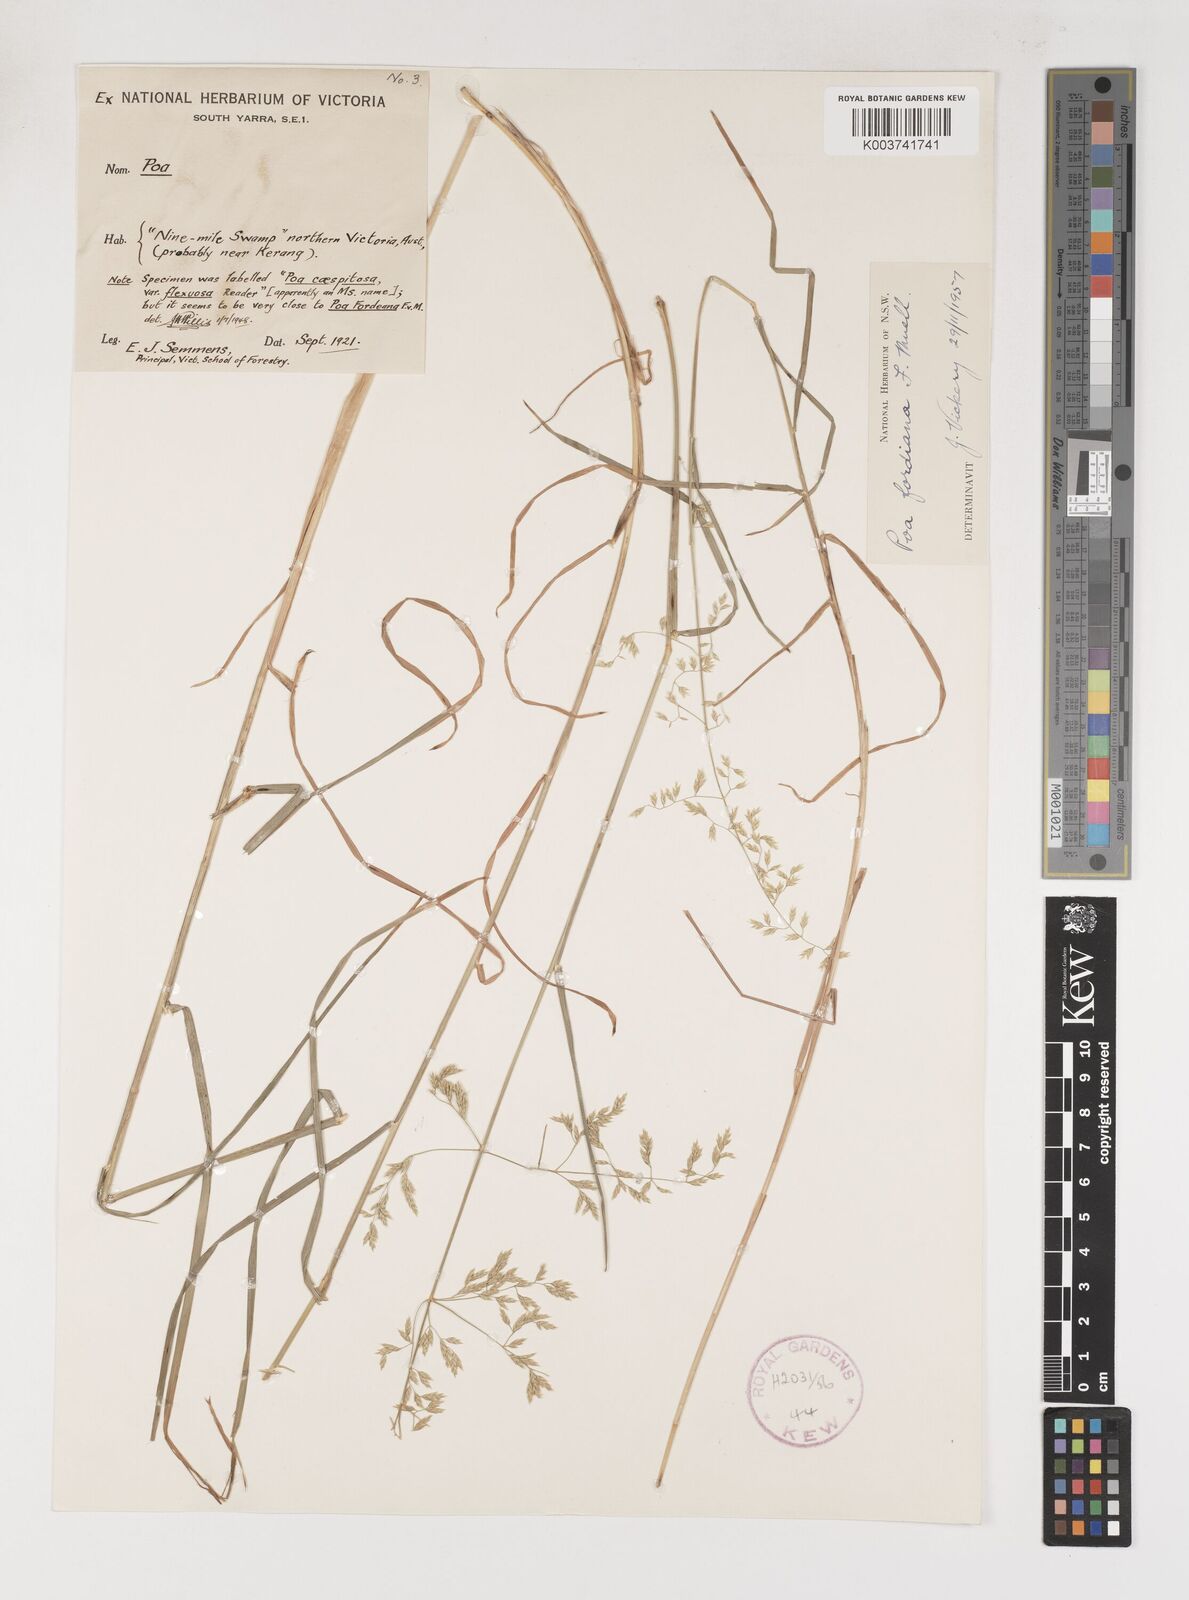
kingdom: Plantae
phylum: Tracheophyta
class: Liliopsida
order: Poales
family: Poaceae
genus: Poa
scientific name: Poa fordeana
